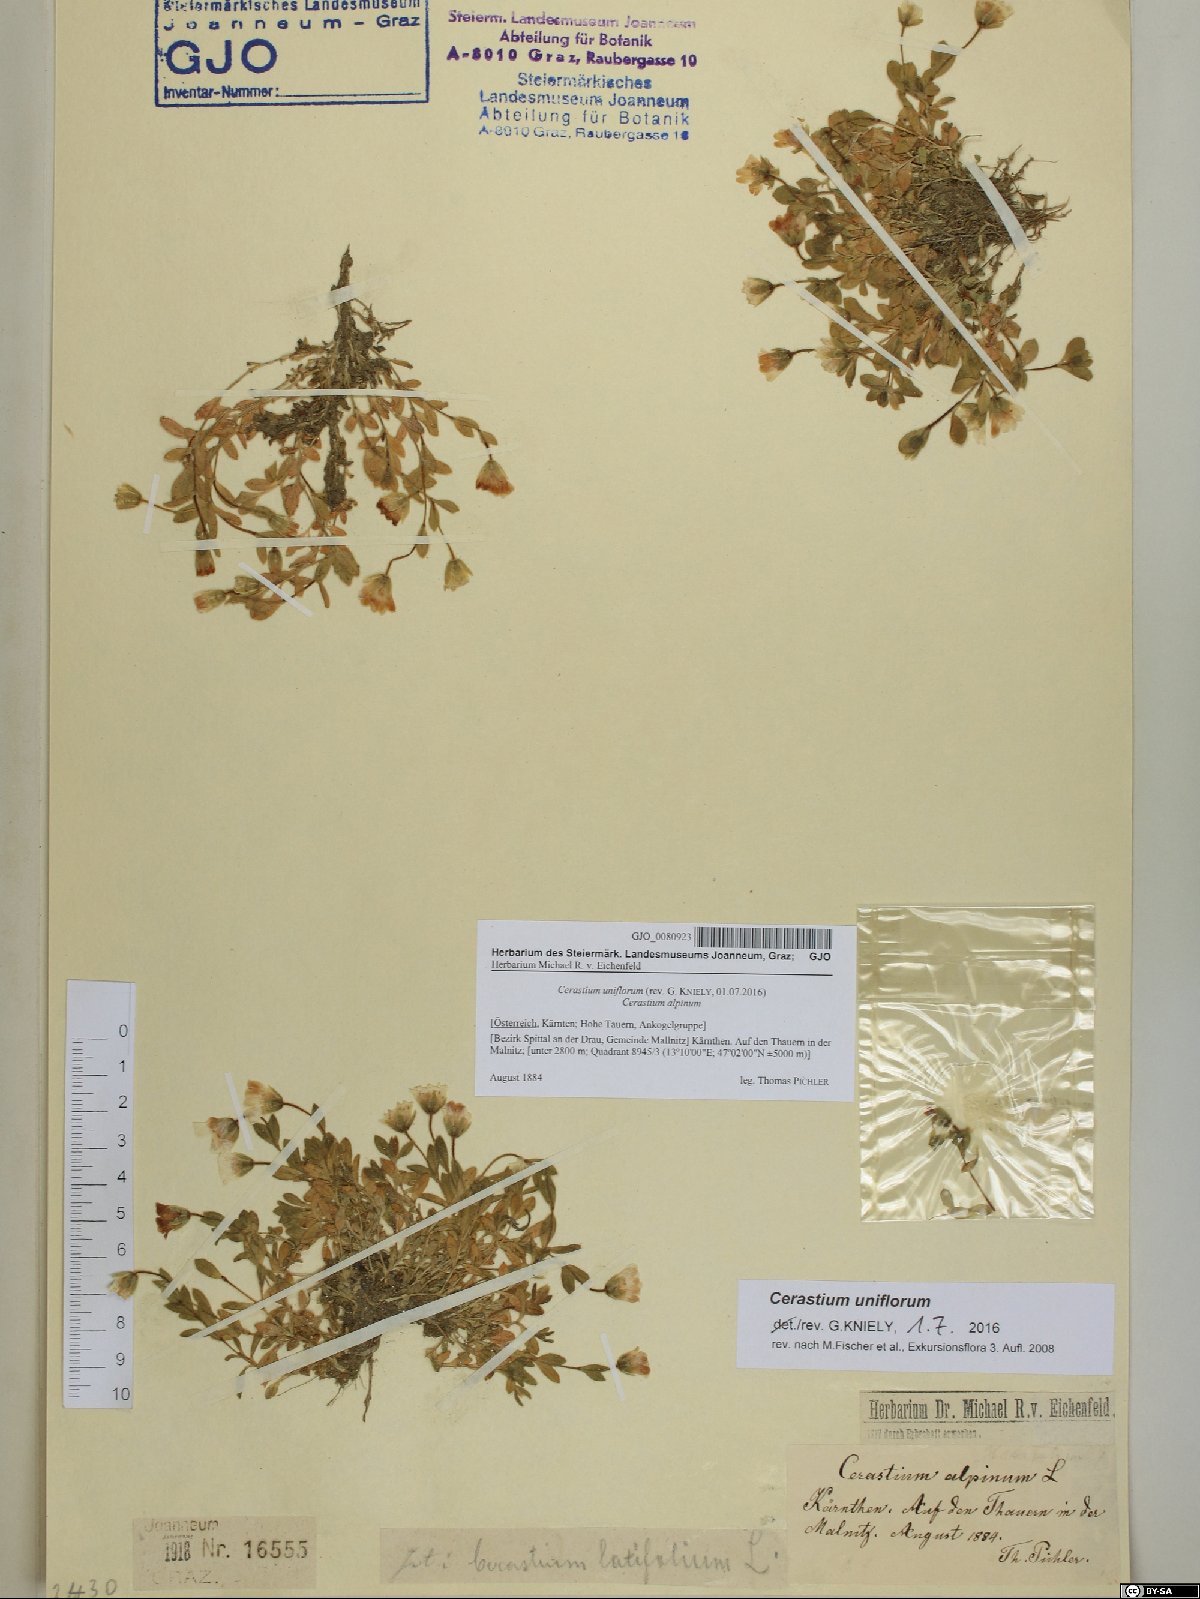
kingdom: Plantae
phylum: Tracheophyta
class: Magnoliopsida
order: Caryophyllales
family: Caryophyllaceae
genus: Cerastium
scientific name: Cerastium uniflorum
